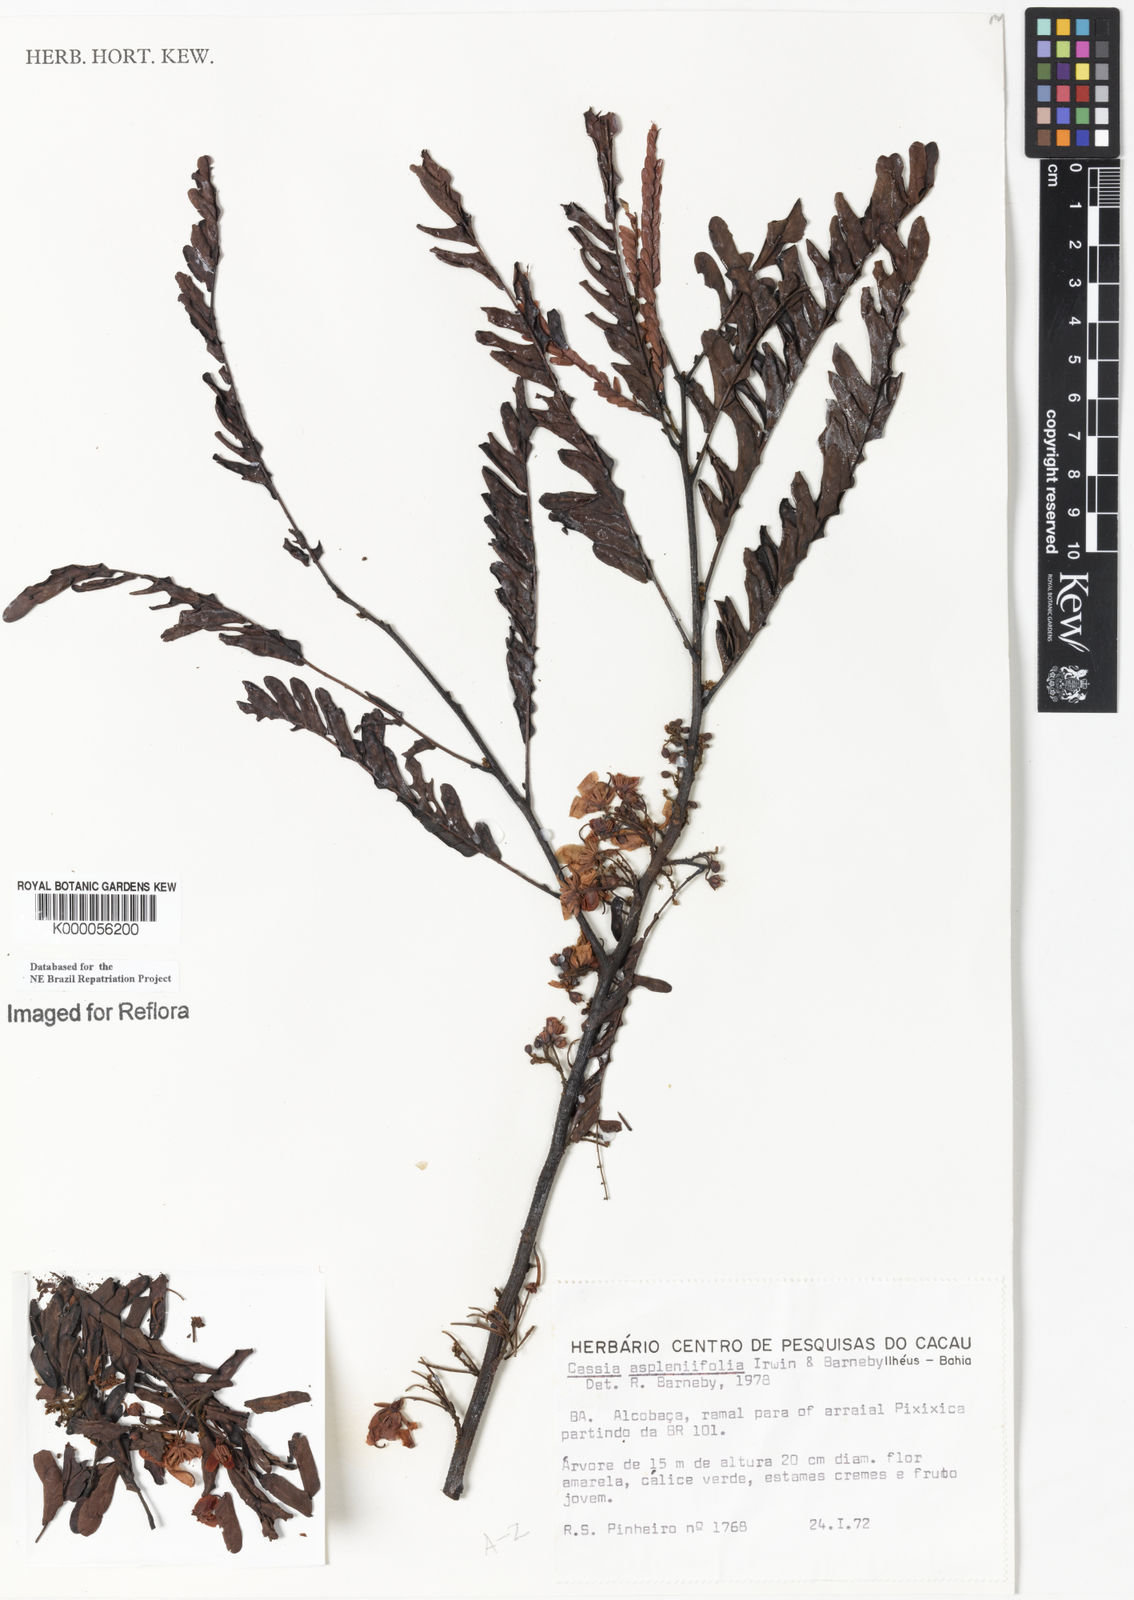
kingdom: Plantae
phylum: Tracheophyta
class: Magnoliopsida
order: Fabales
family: Fabaceae
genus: Chamaecrista
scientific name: Chamaecrista aspleniifolia
